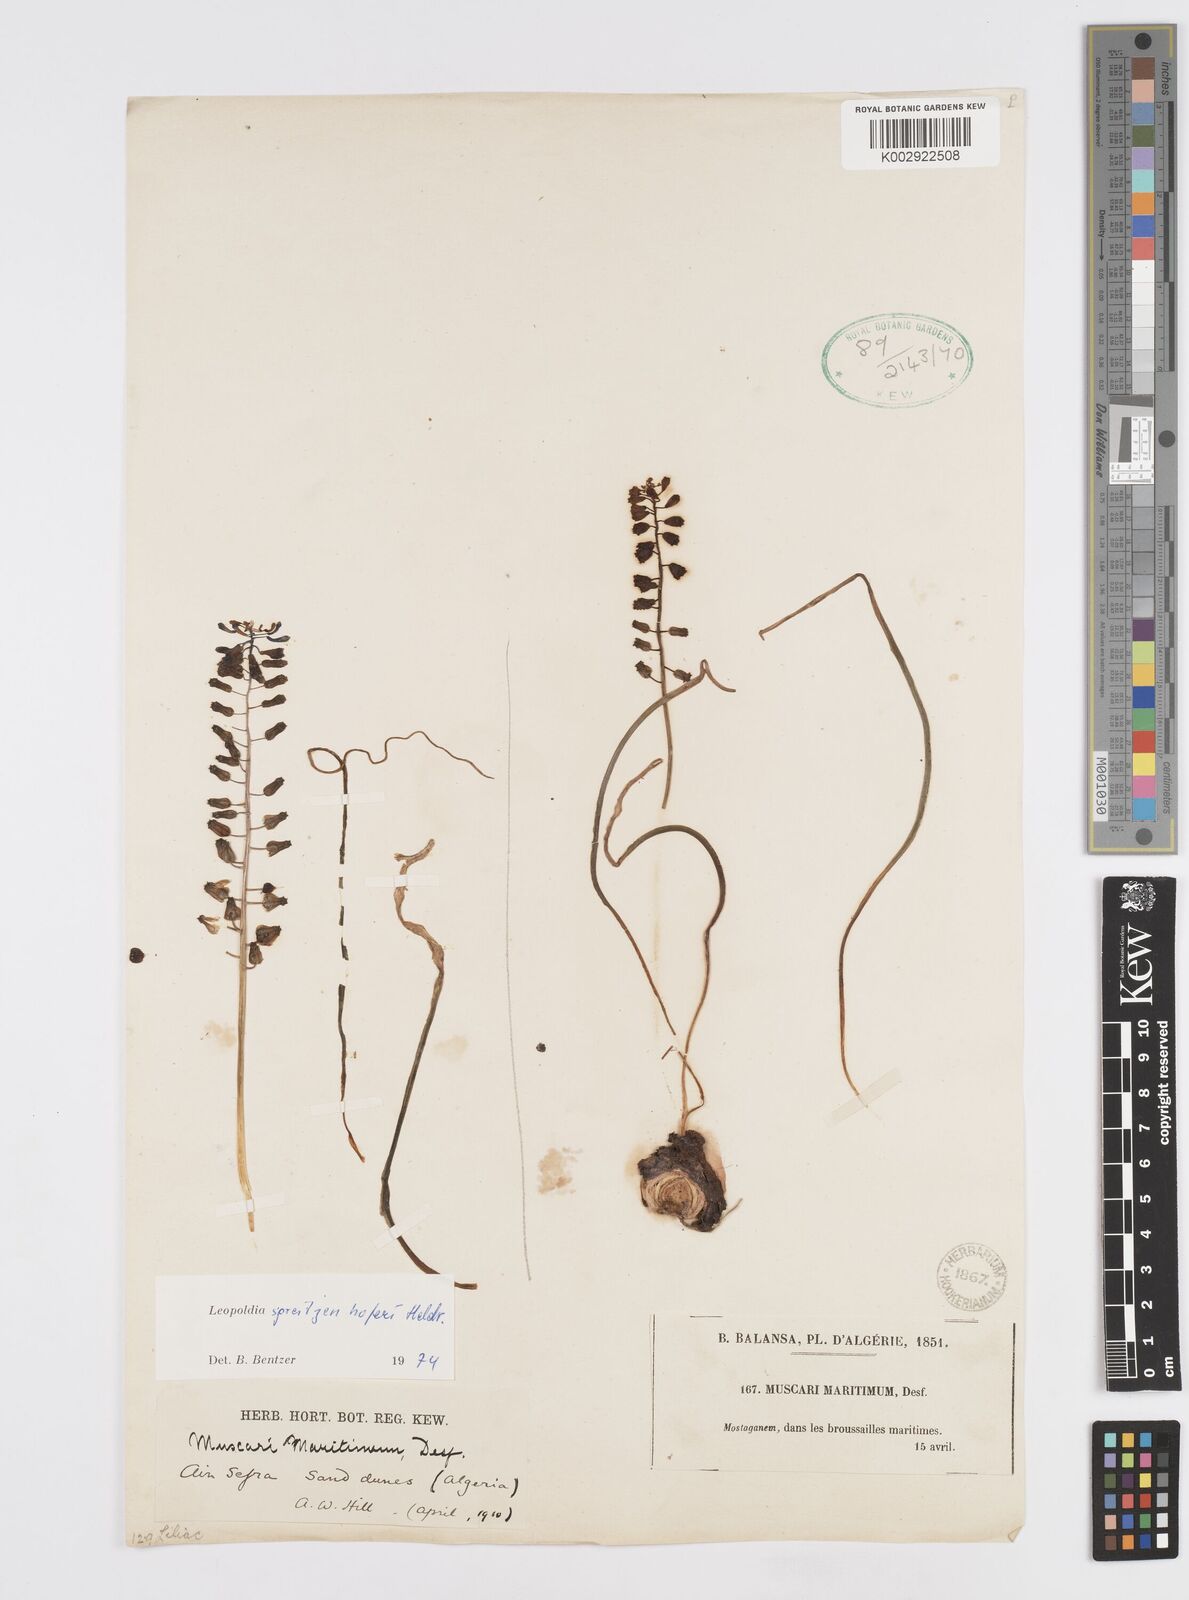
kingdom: Plantae
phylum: Tracheophyta
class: Liliopsida
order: Asparagales
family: Asparagaceae
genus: Muscari
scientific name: Muscari spreitzenhoferi
